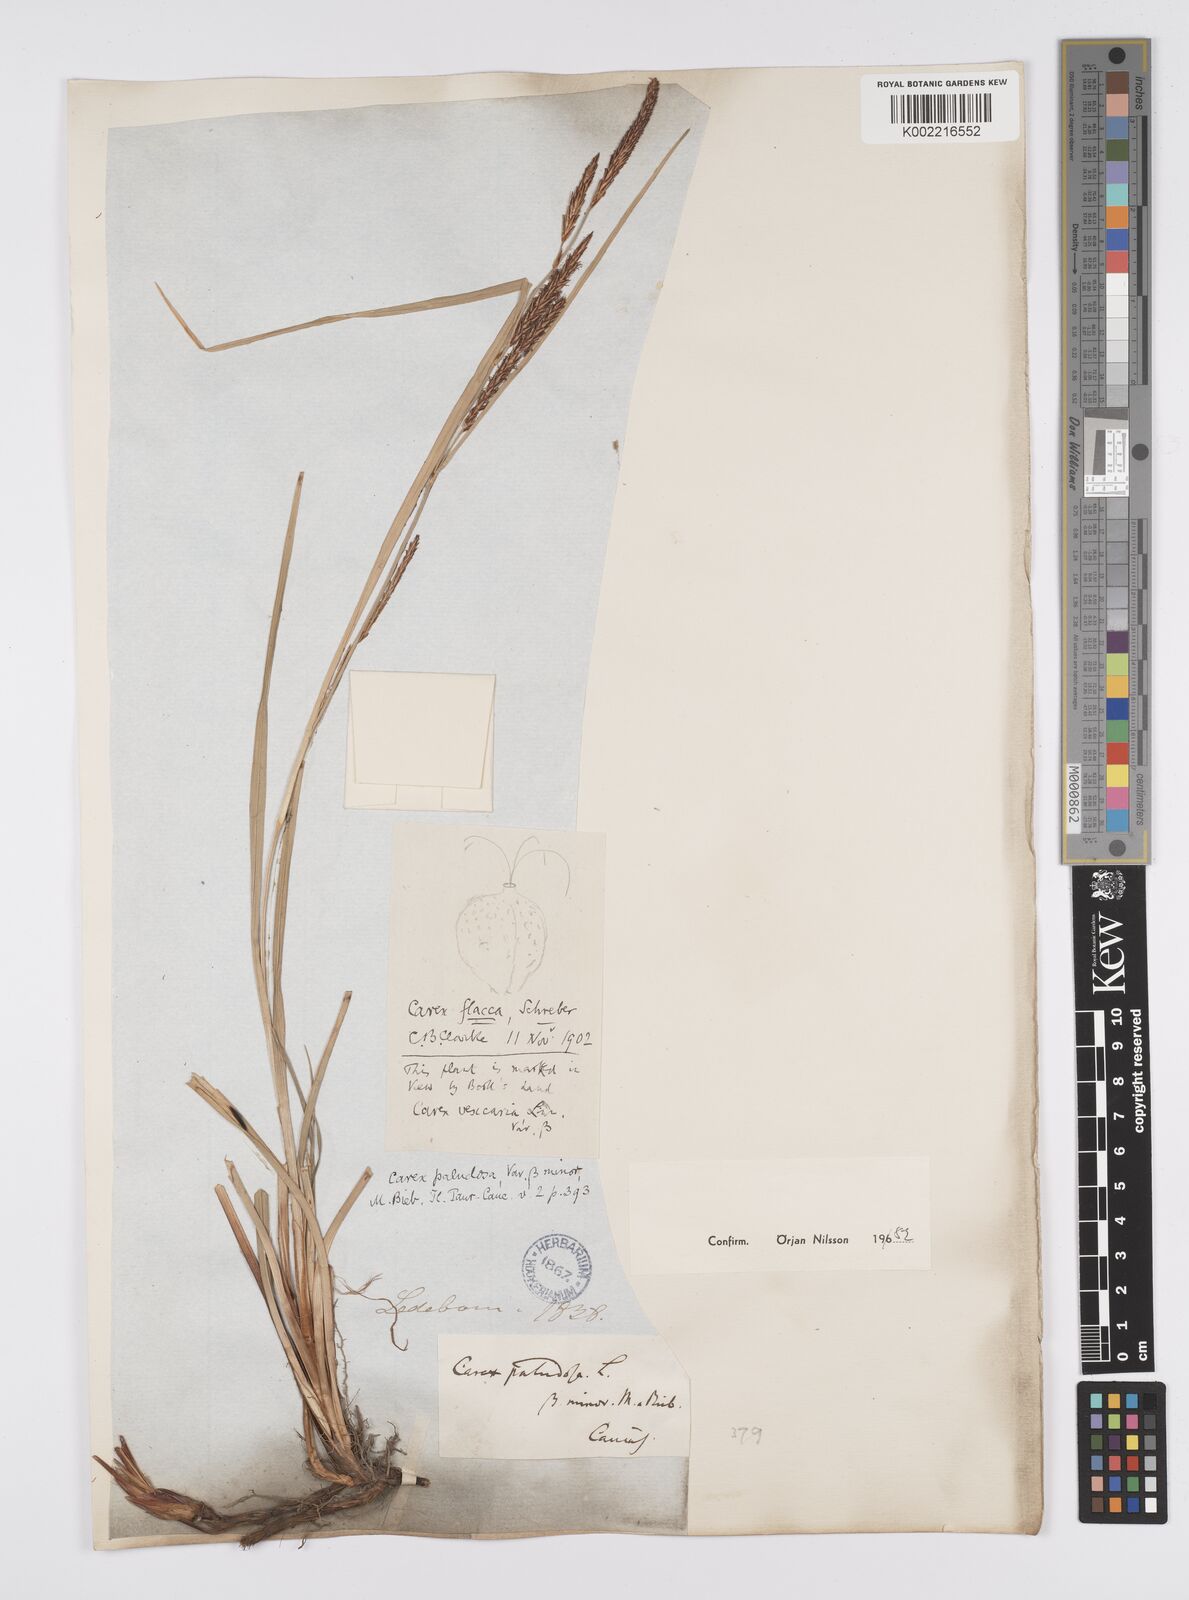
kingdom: Plantae
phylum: Tracheophyta
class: Liliopsida
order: Poales
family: Cyperaceae
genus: Carex
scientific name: Carex flacca
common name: Glaucous sedge
